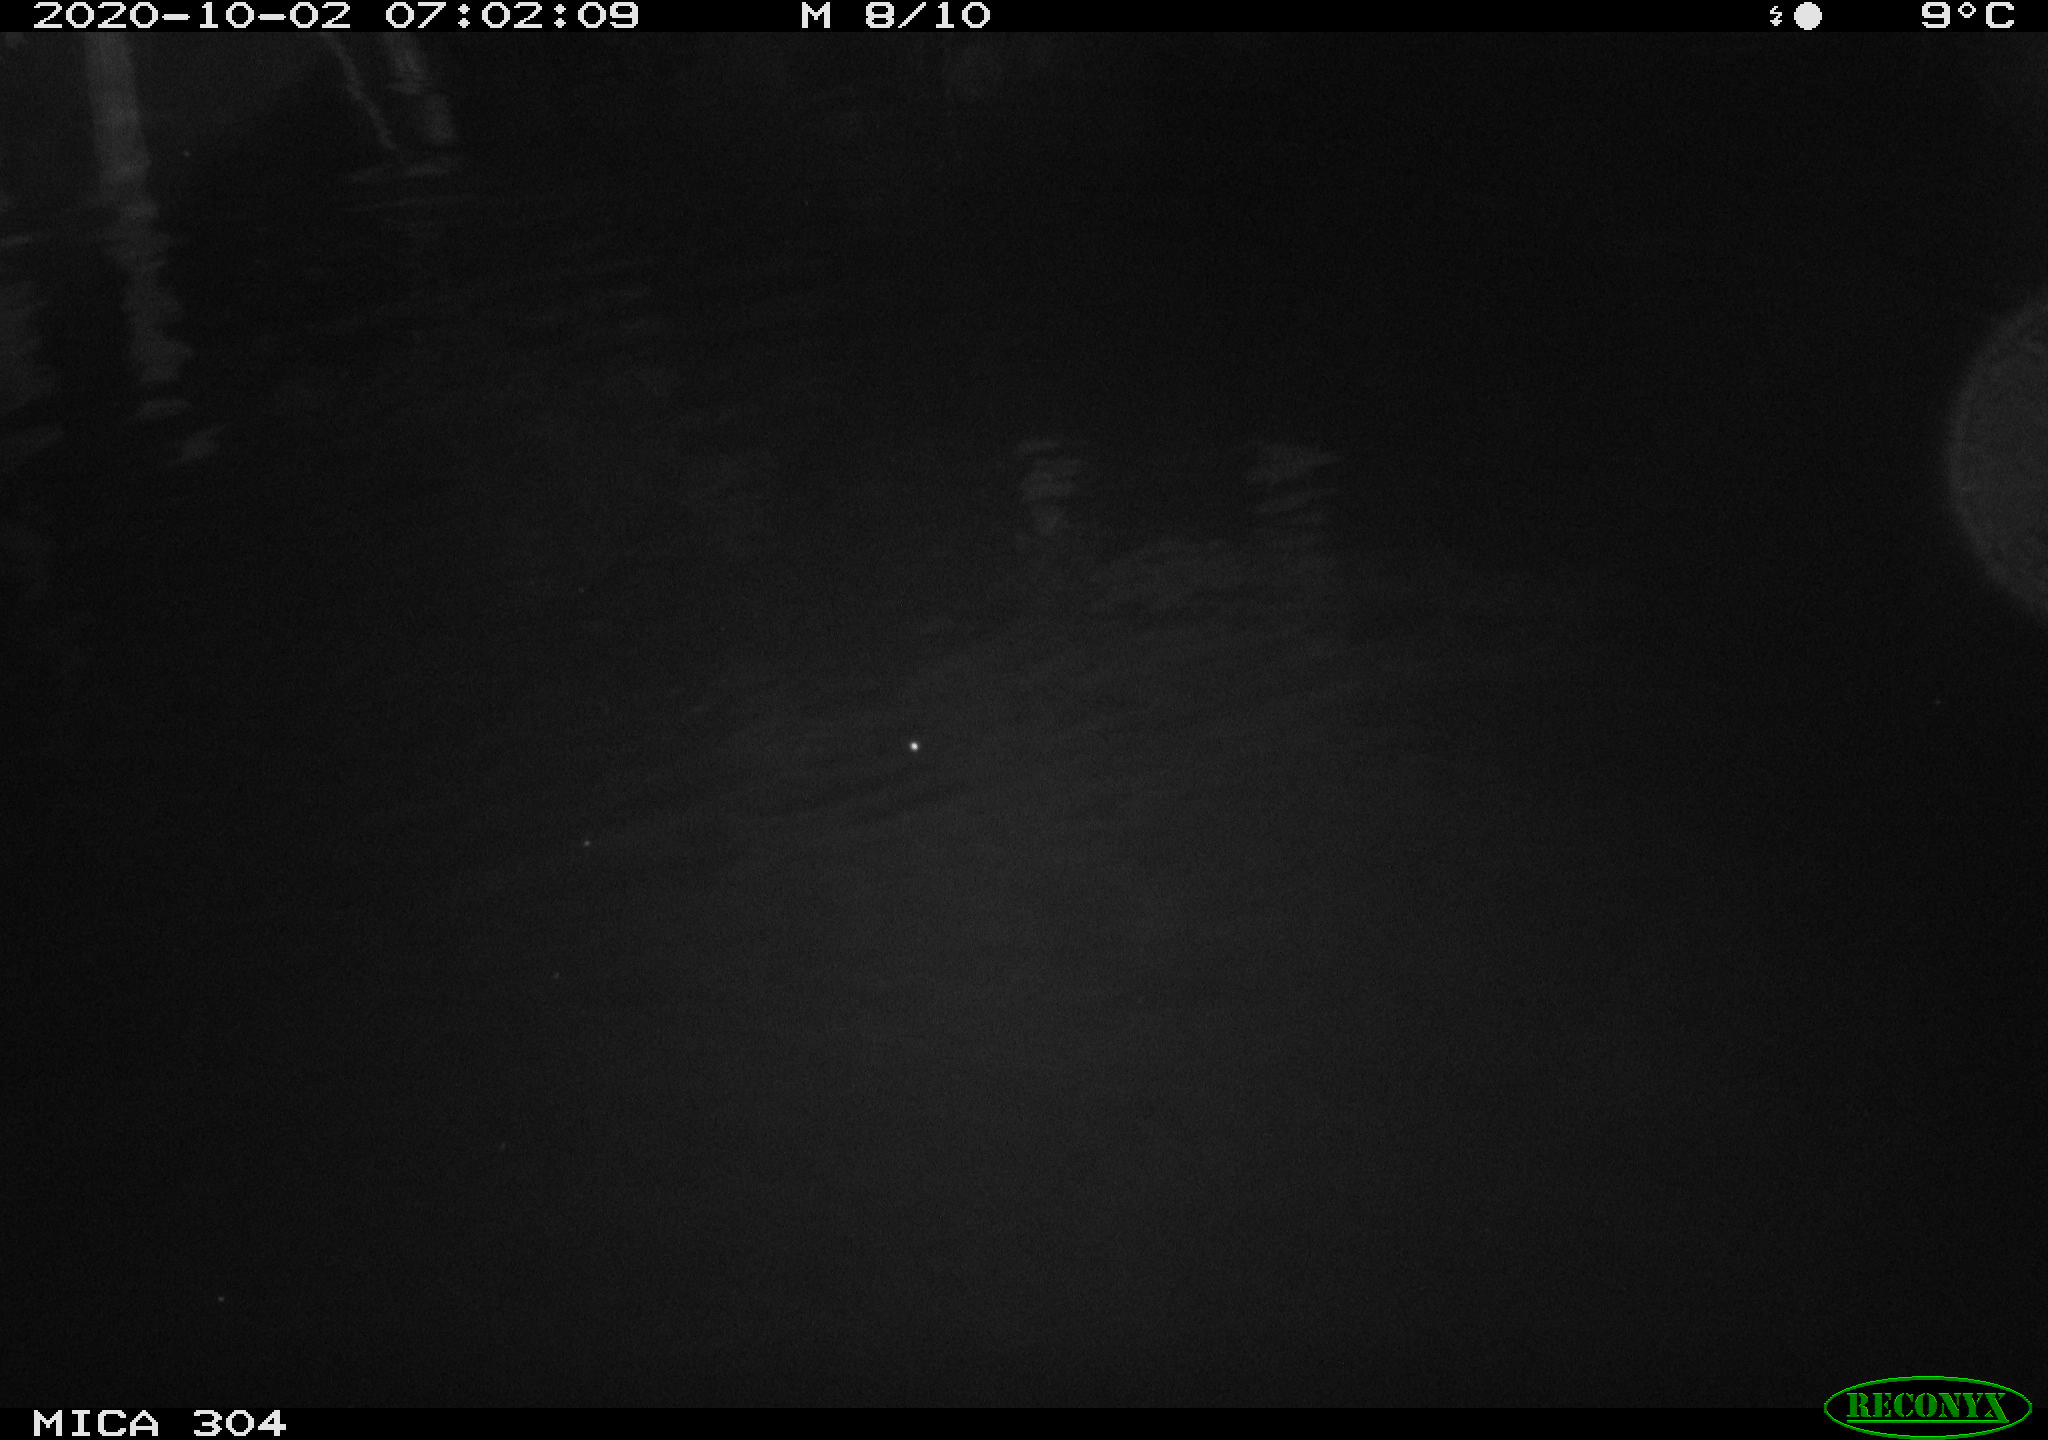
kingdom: Animalia
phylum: Chordata
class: Mammalia
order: Rodentia
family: Muridae
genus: Rattus
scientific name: Rattus norvegicus
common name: Brown rat
